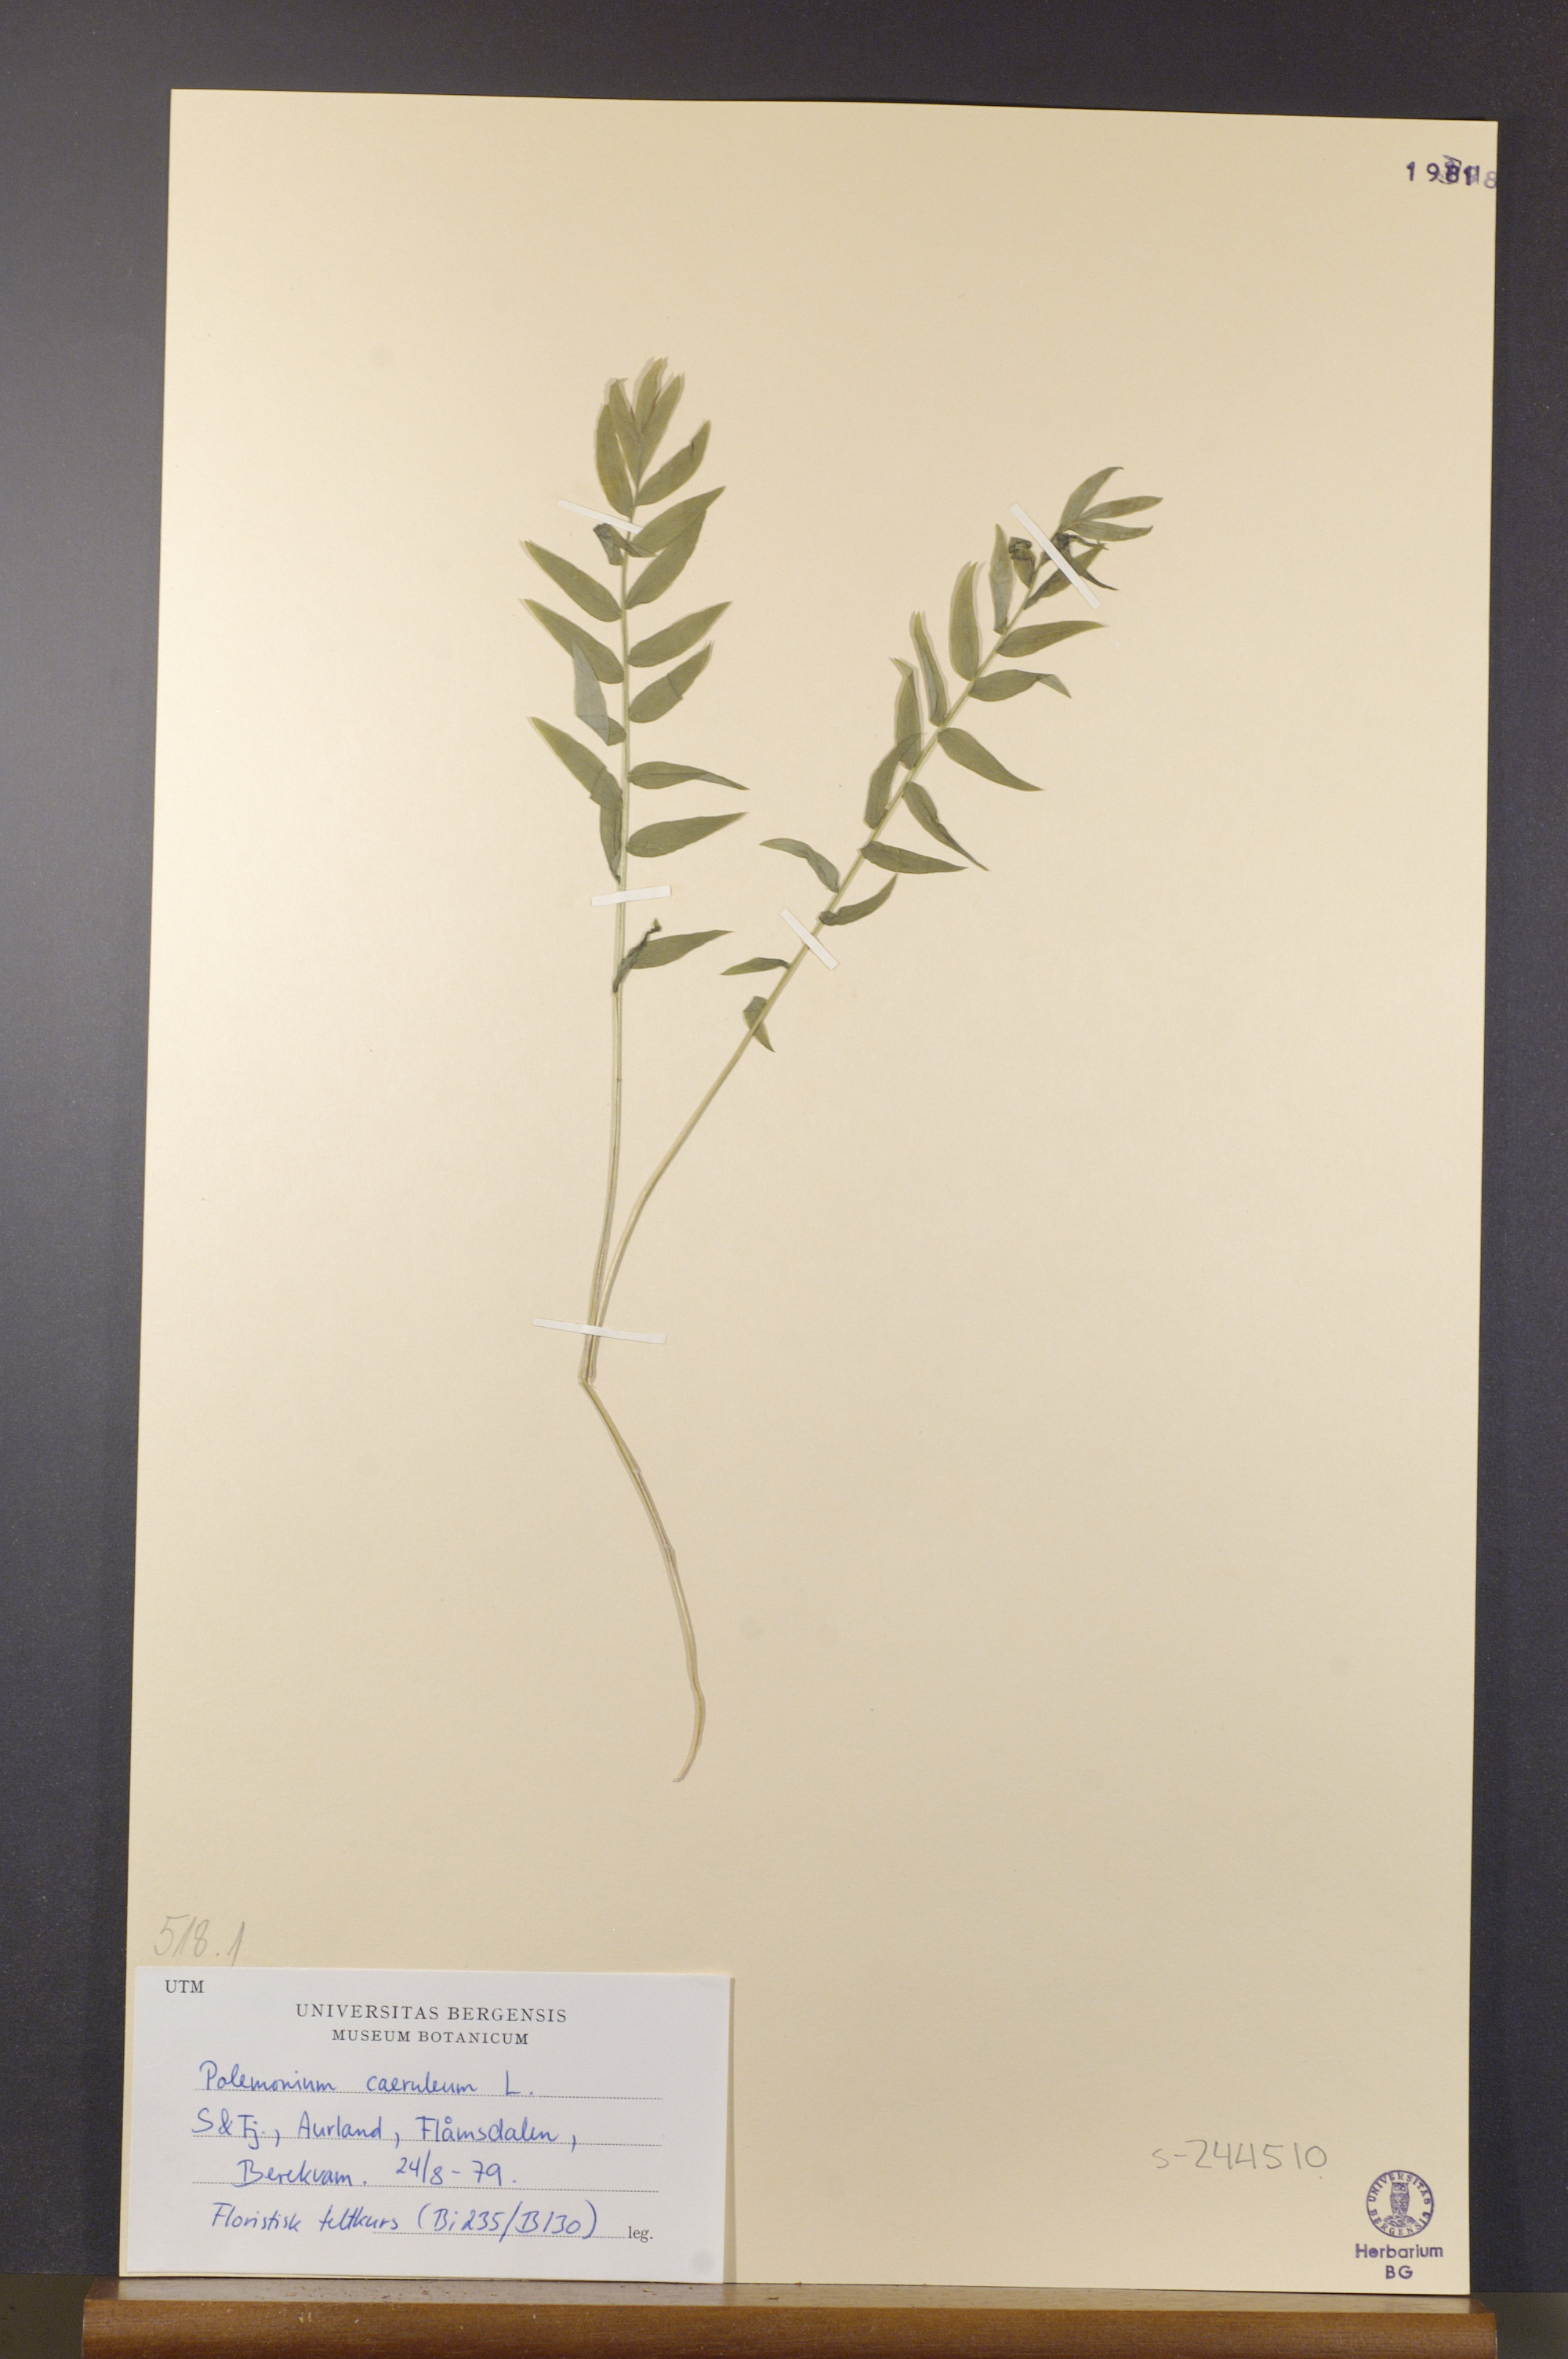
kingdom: Plantae
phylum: Tracheophyta
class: Magnoliopsida
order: Ericales
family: Polemoniaceae
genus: Polemonium
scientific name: Polemonium caeruleum
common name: Jacob's-ladder
